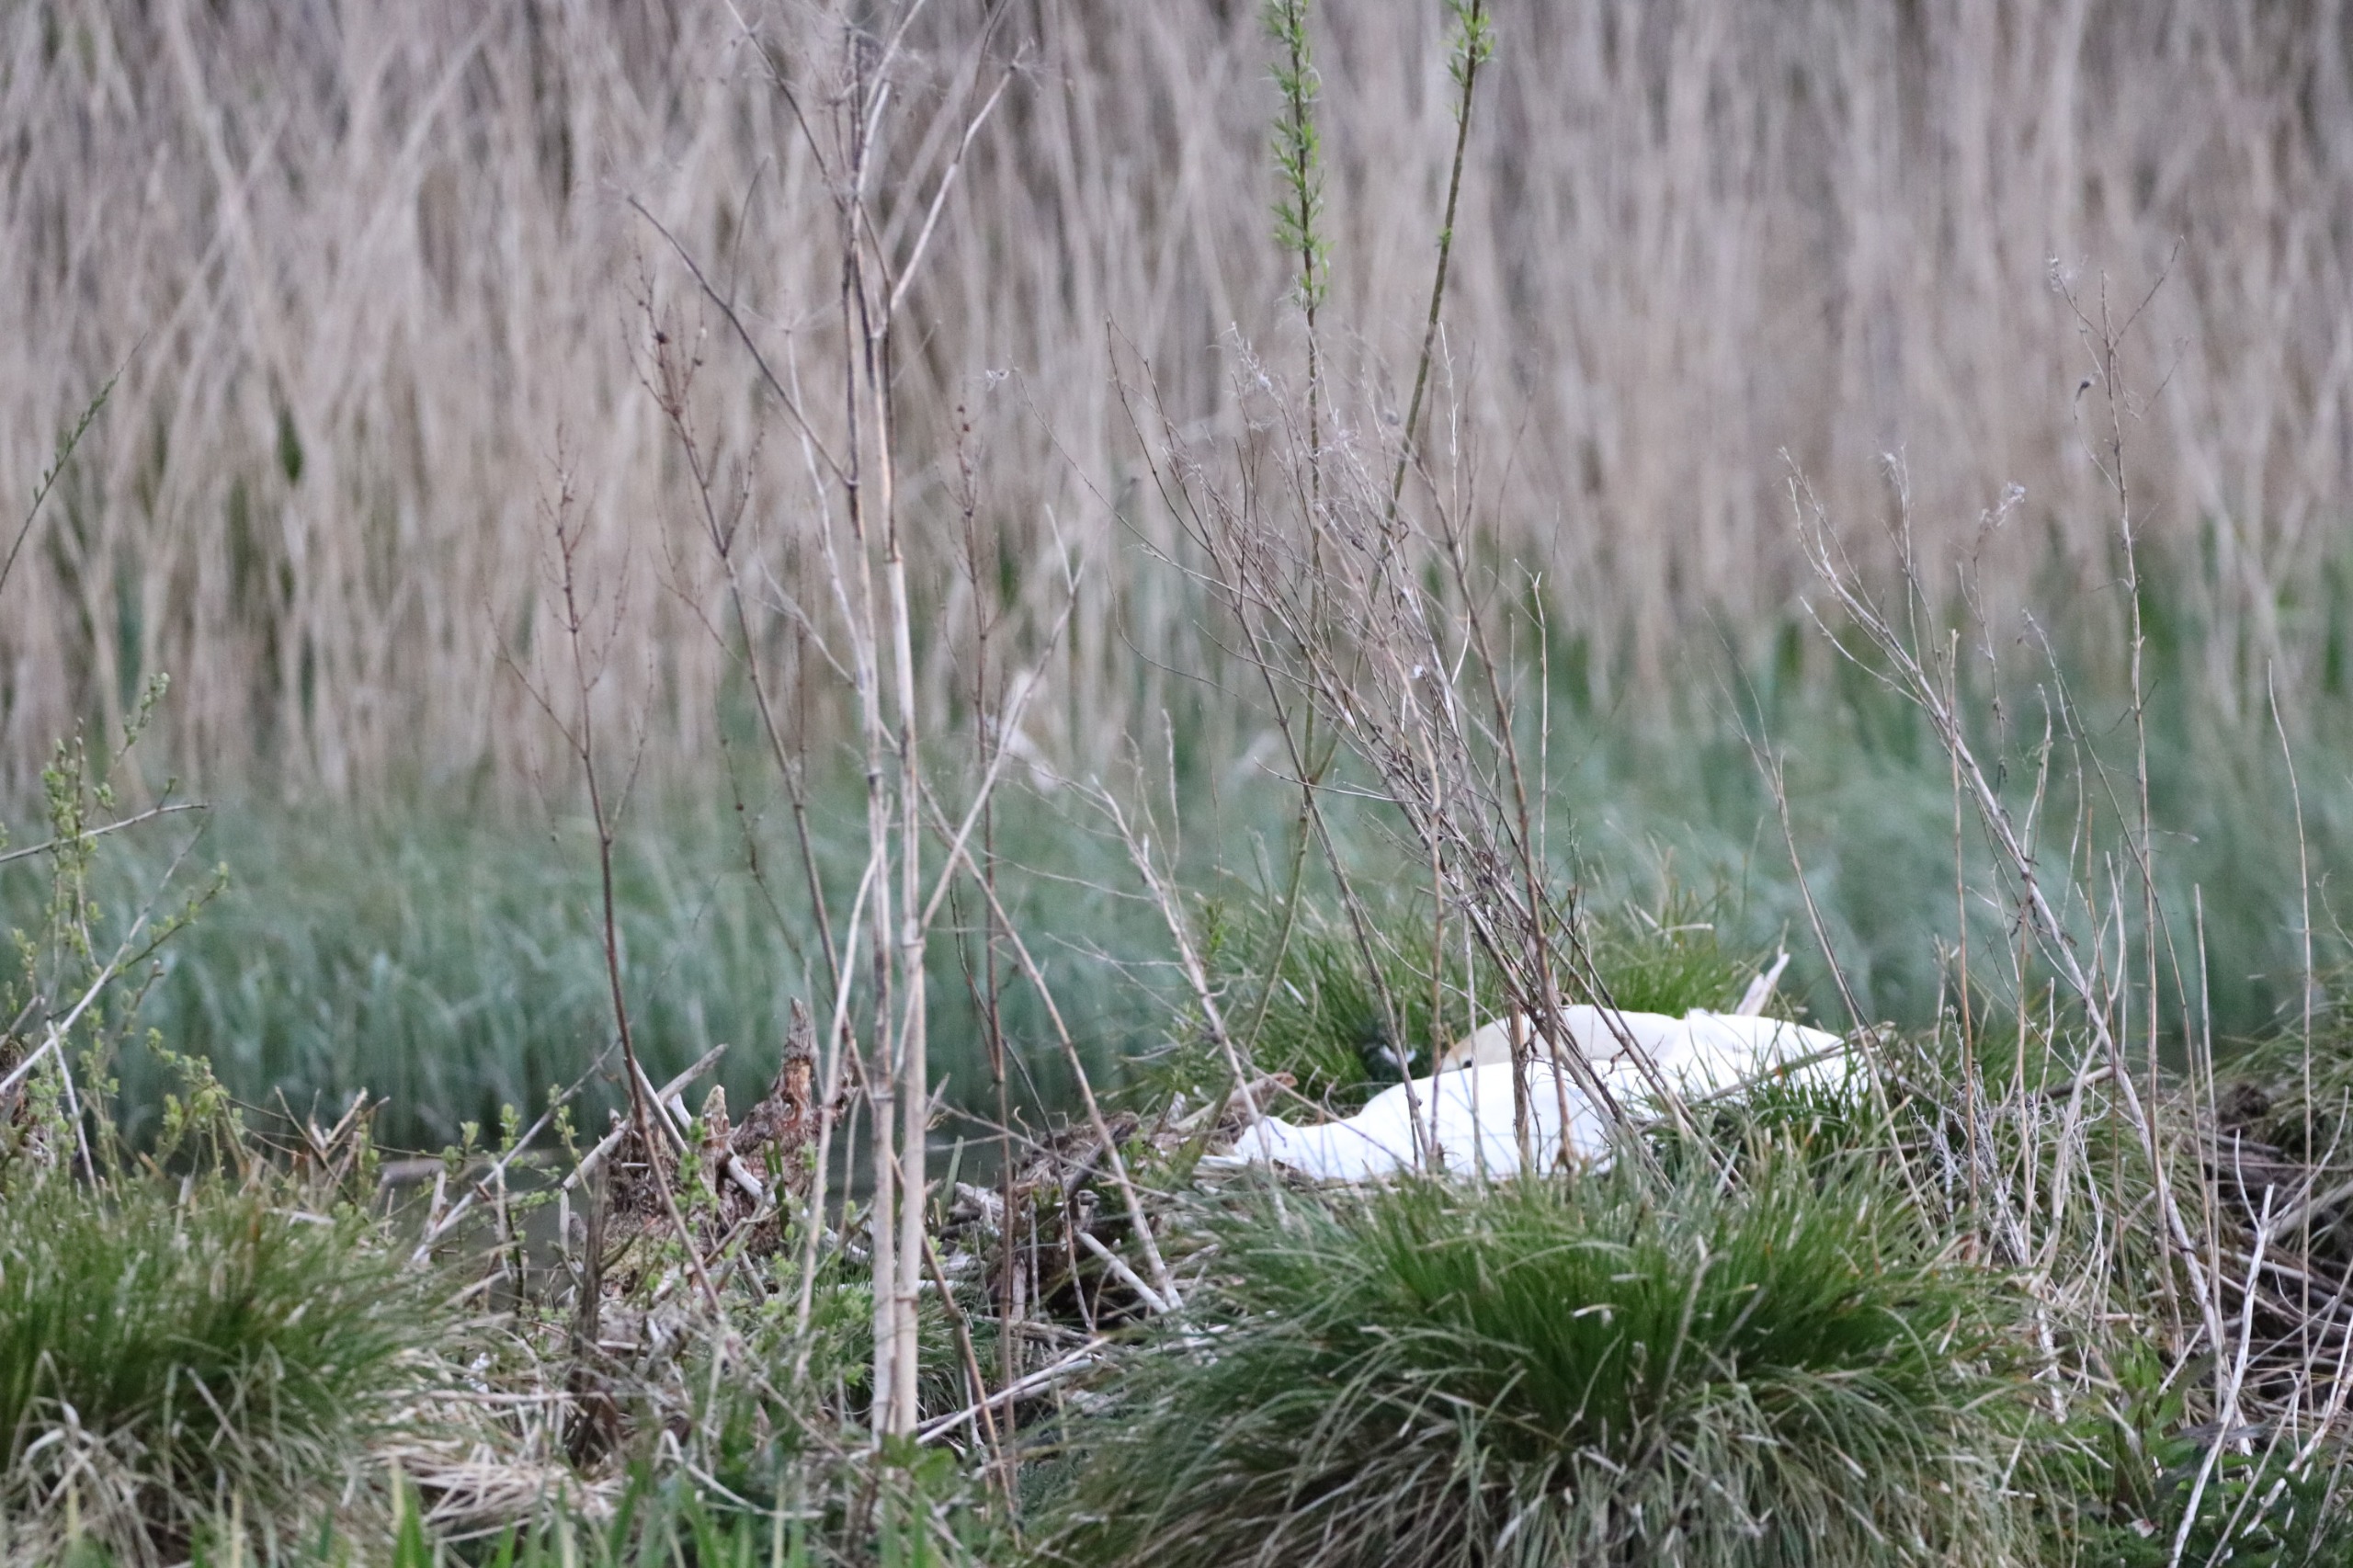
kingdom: Animalia
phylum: Chordata
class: Aves
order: Anseriformes
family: Anatidae
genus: Cygnus
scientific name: Cygnus olor
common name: Knopsvane
